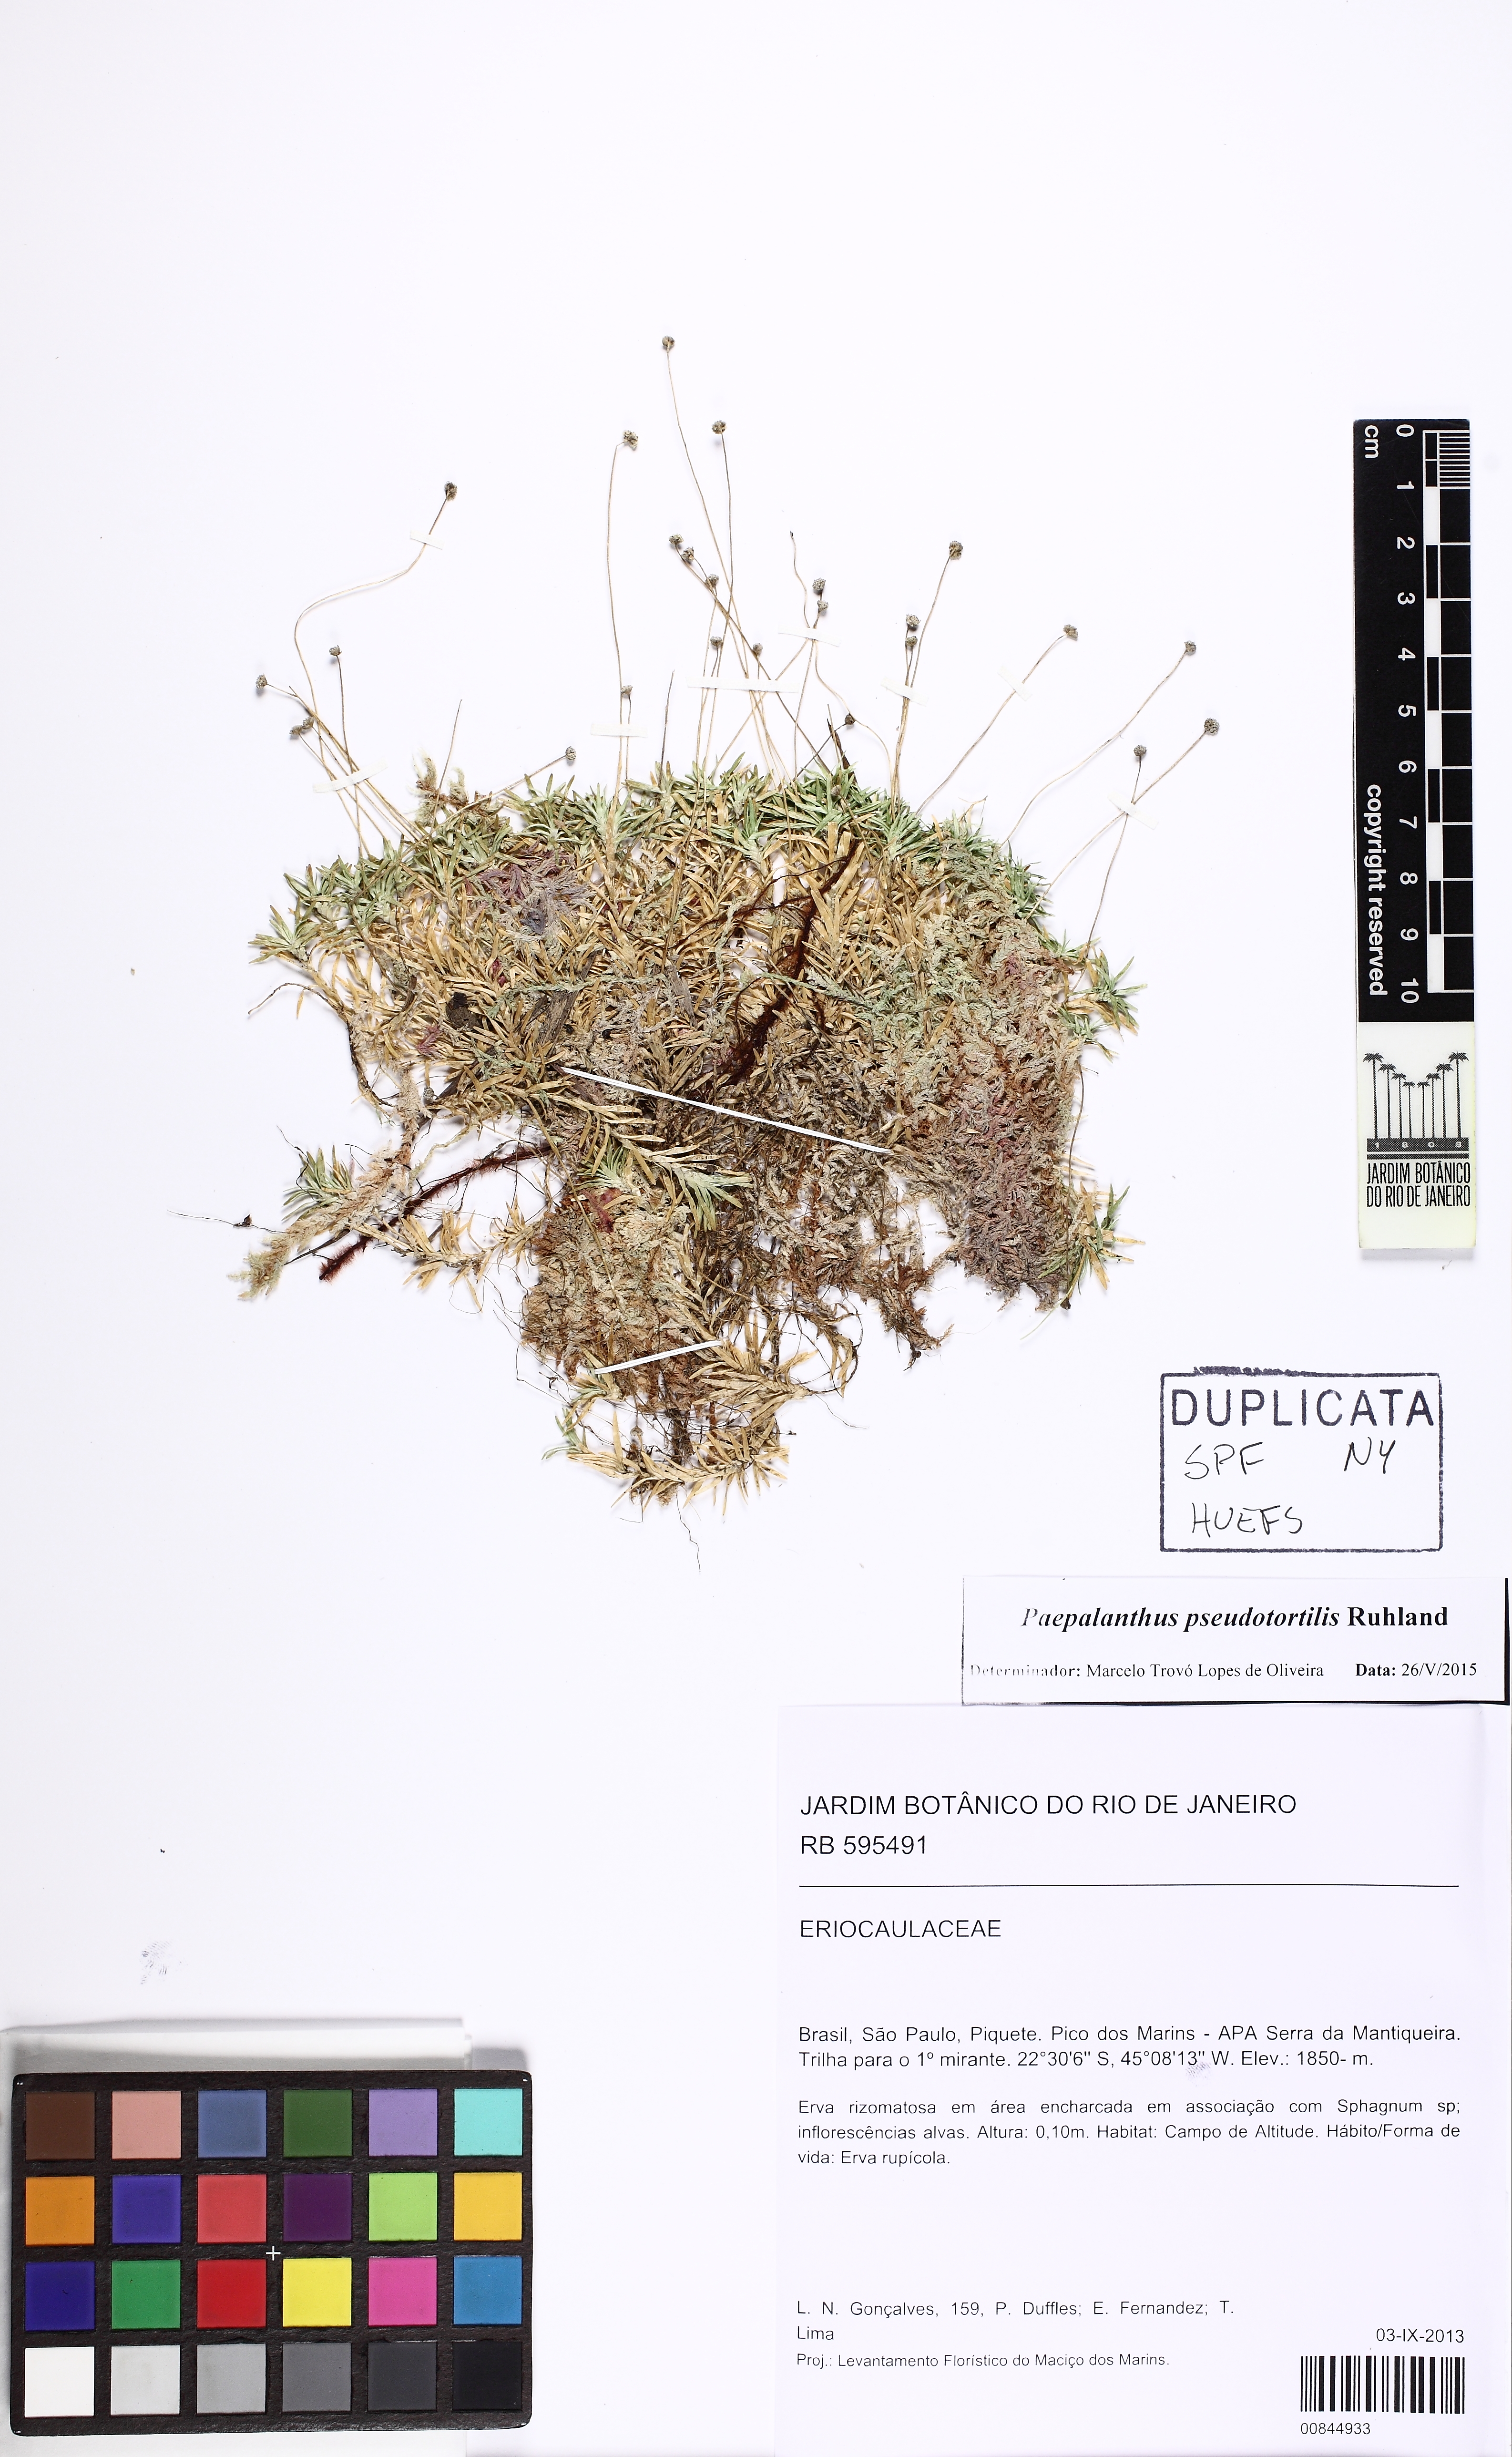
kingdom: Plantae
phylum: Tracheophyta
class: Liliopsida
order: Poales
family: Eriocaulaceae
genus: Paepalanthus
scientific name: Paepalanthus pseudotortilis
